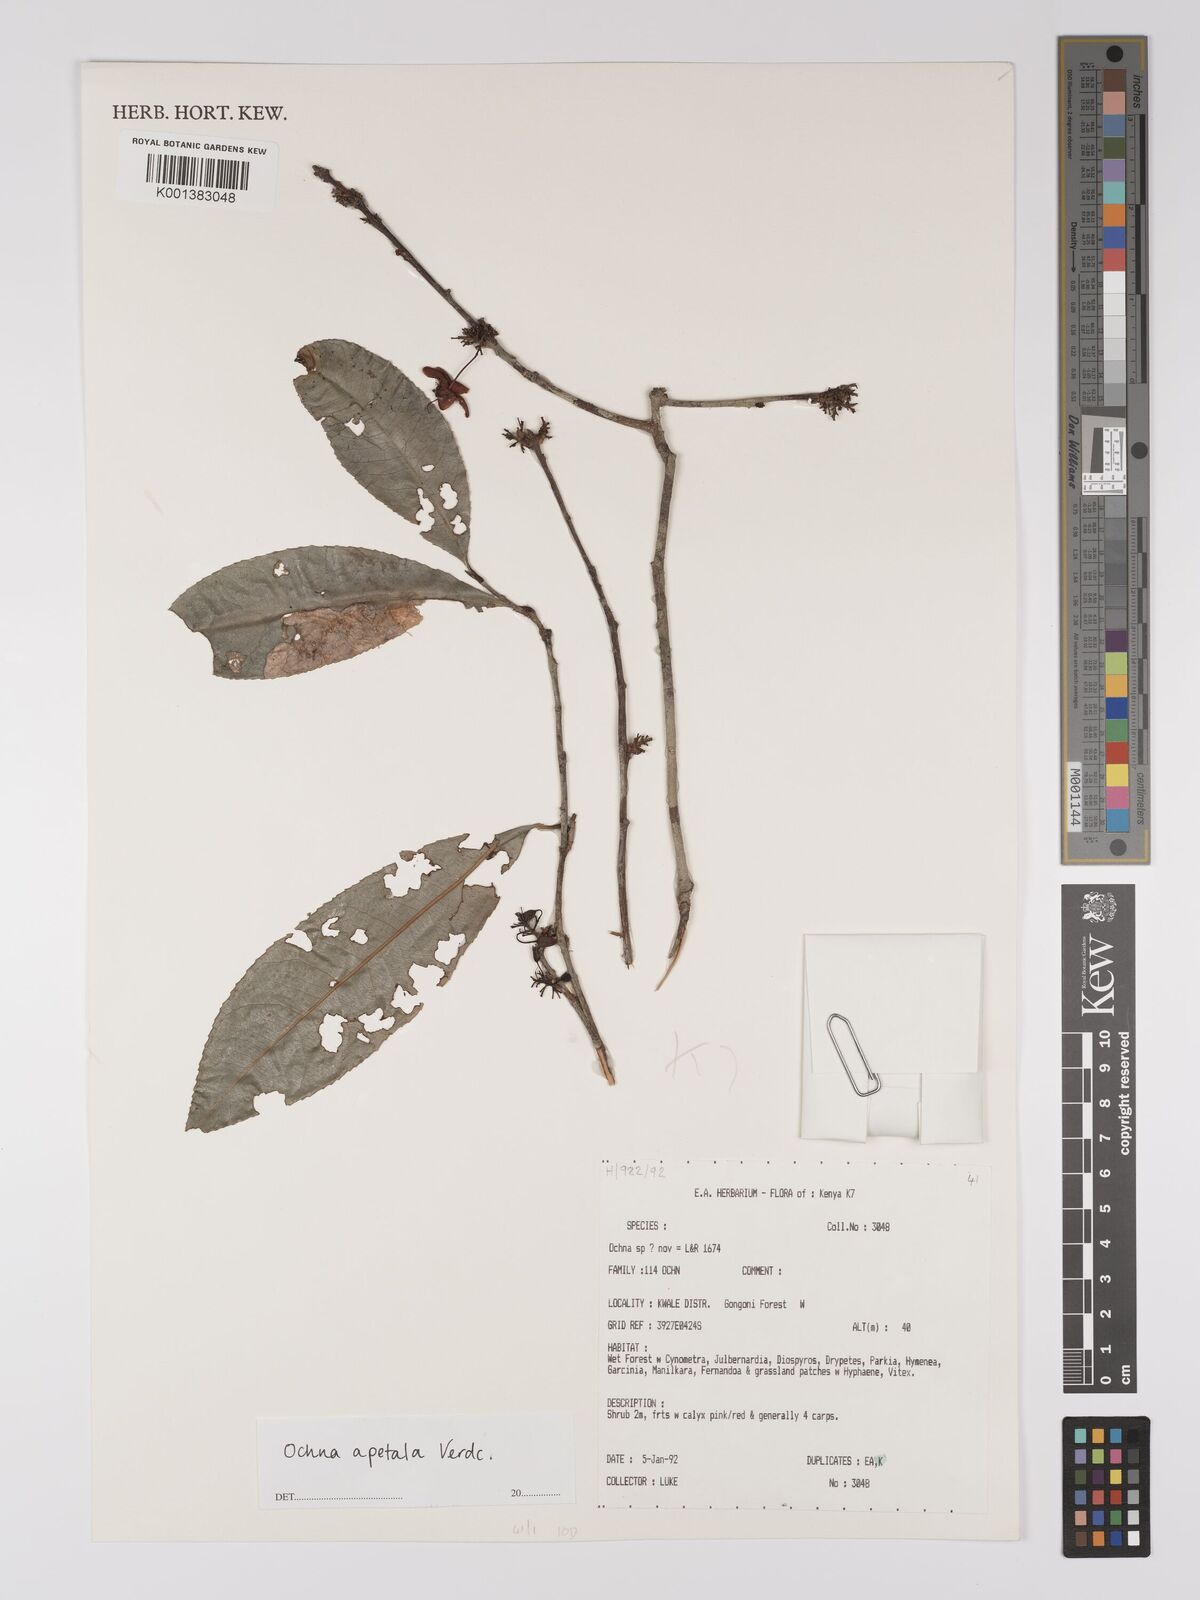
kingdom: Plantae
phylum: Tracheophyta
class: Magnoliopsida
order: Malpighiales
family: Ochnaceae
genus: Ochna
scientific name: Ochna apetala
